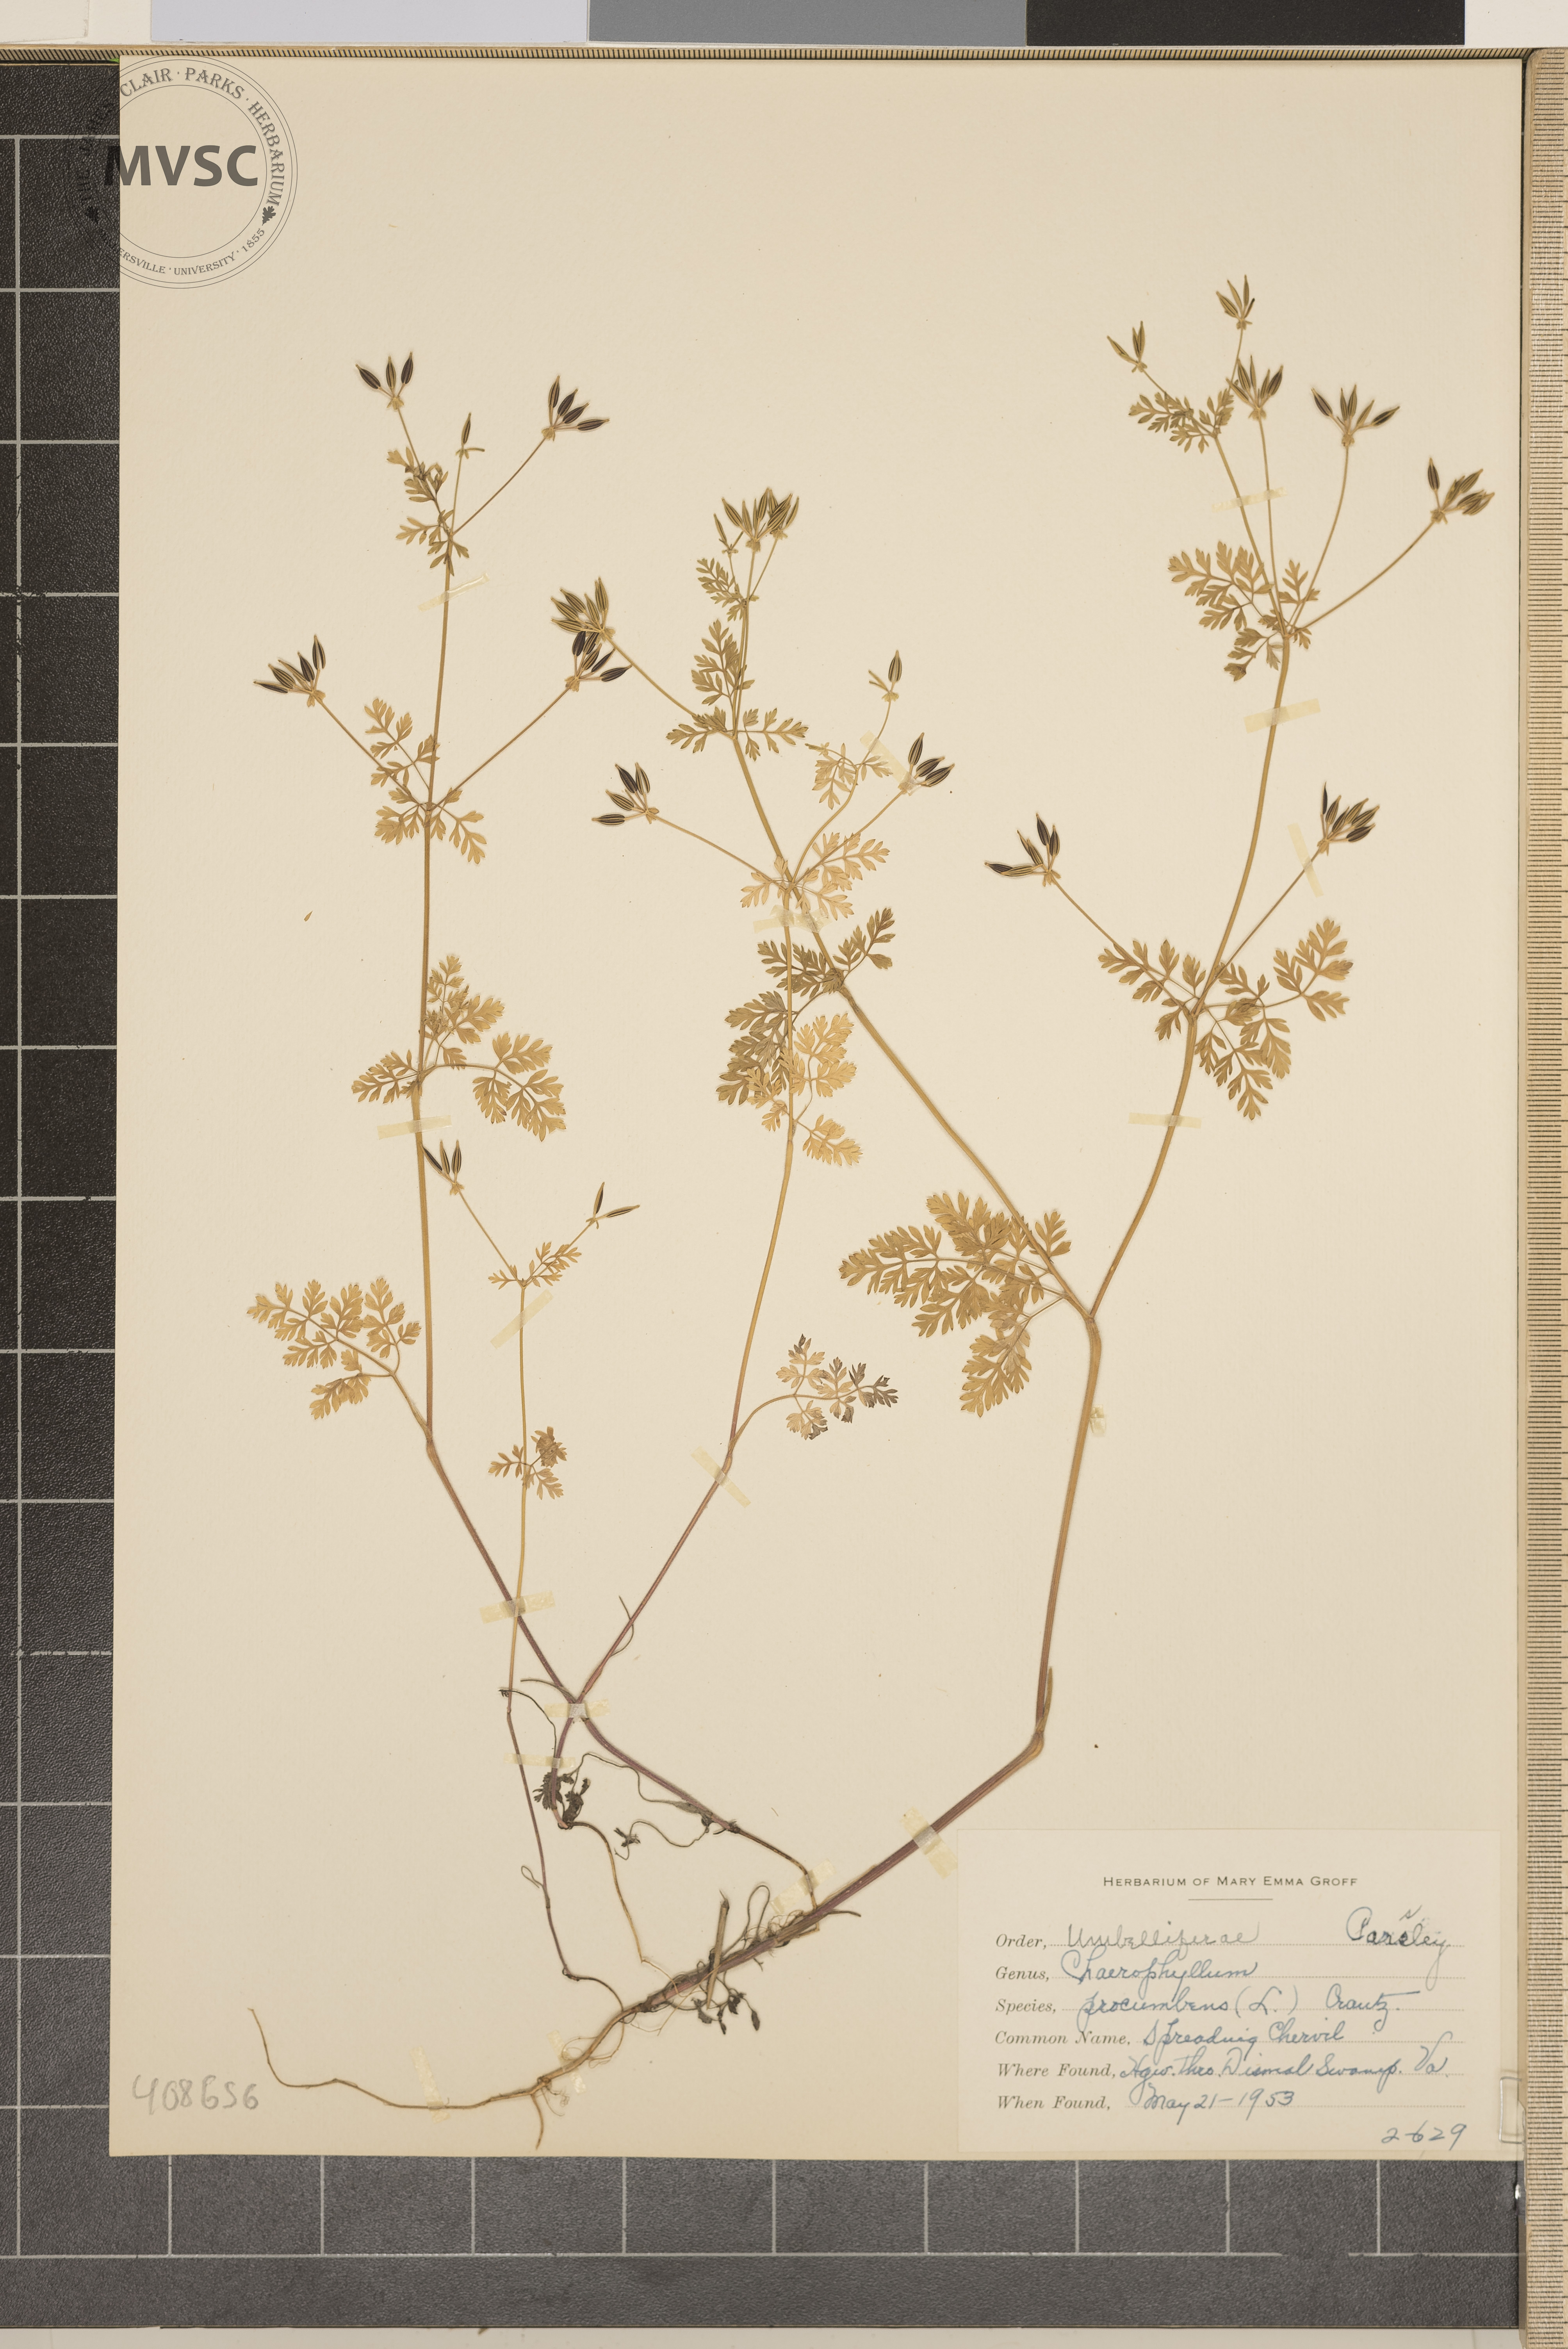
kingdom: Plantae
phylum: Tracheophyta
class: Magnoliopsida
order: Apiales
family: Apiaceae
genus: Chaerophyllum
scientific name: Chaerophyllum procumbens
